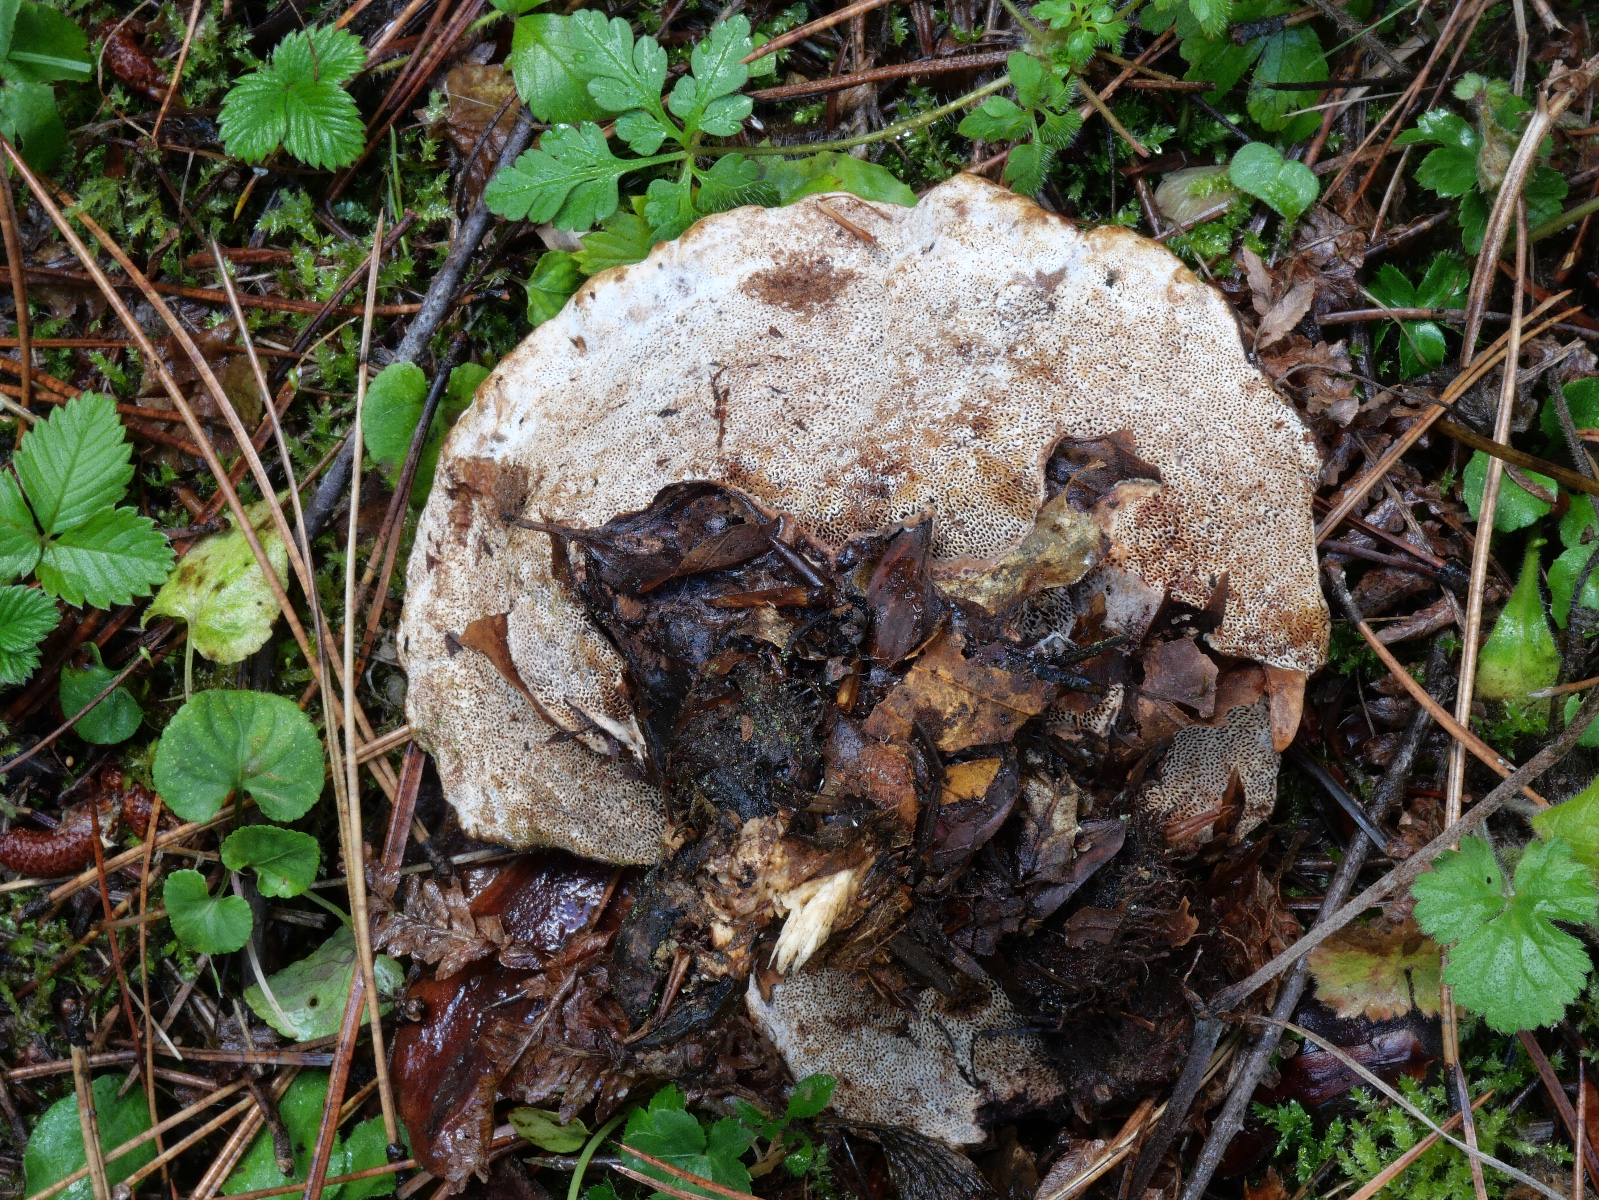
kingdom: Fungi
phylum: Basidiomycota
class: Agaricomycetes
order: Polyporales
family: Polyporaceae
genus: Podofomes
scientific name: Podofomes trogii
